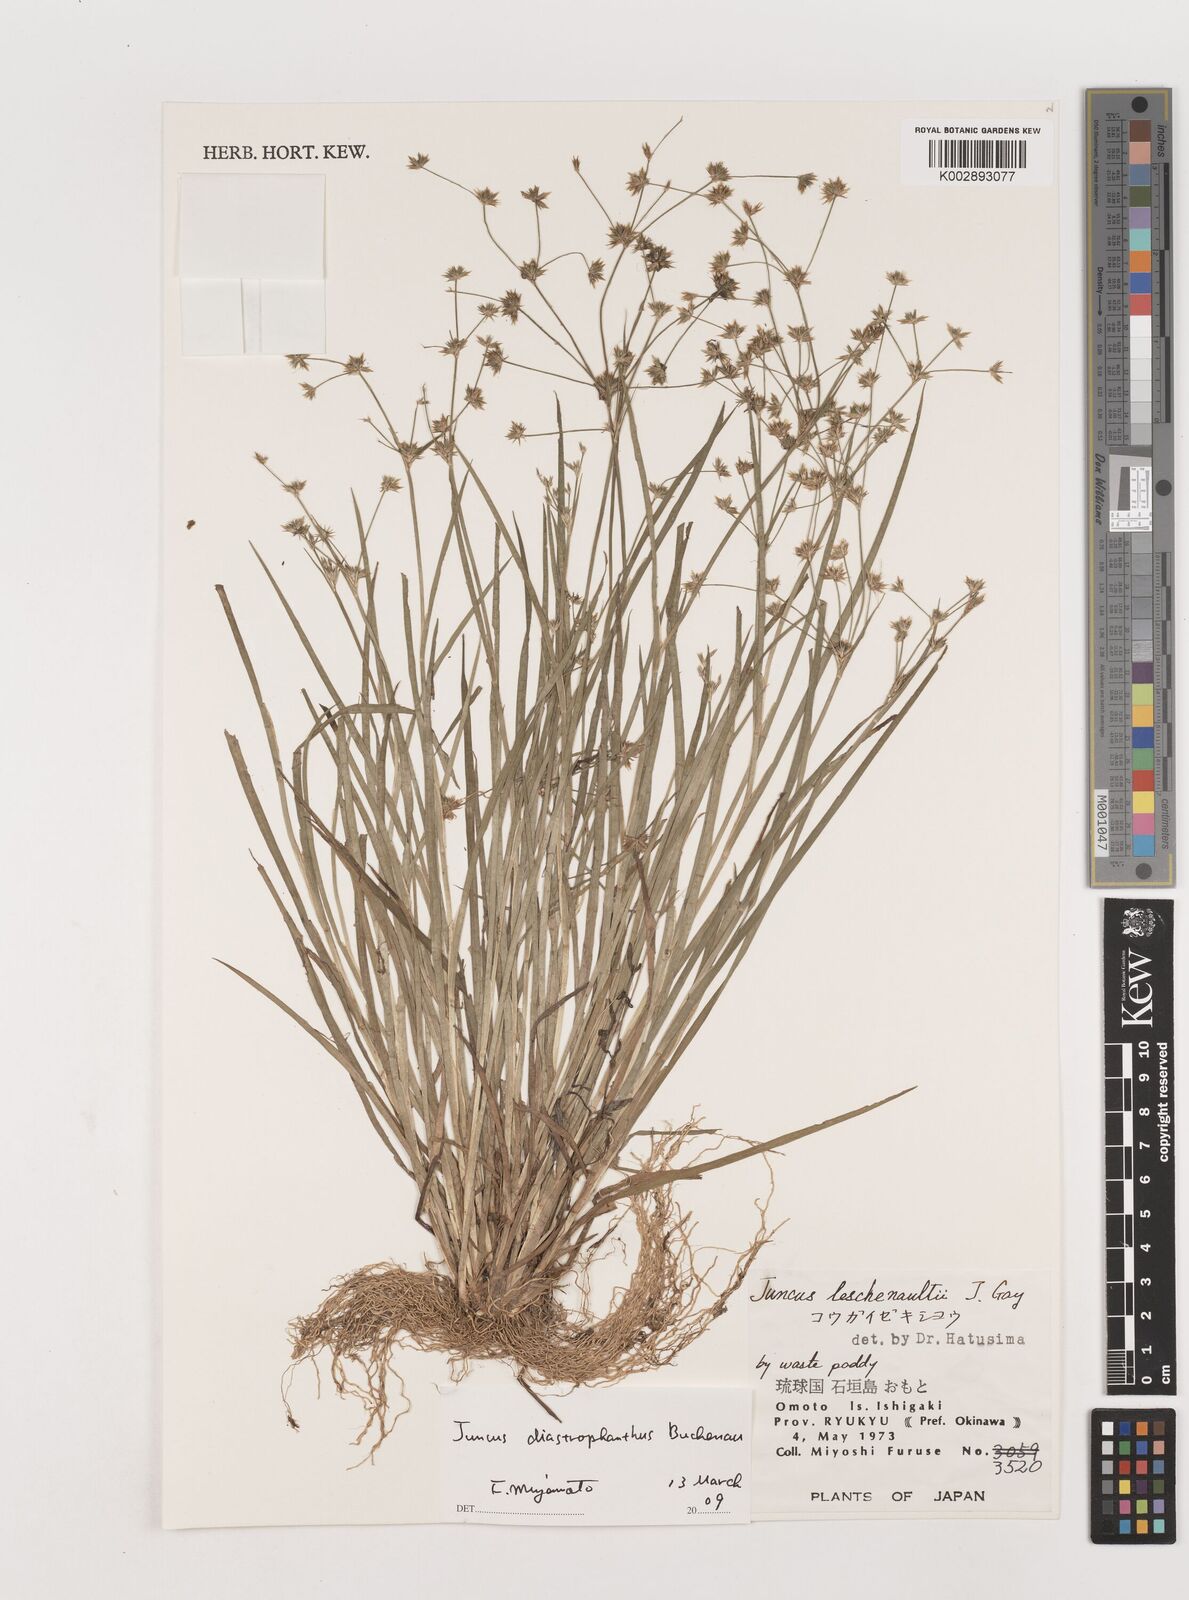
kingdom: Plantae
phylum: Tracheophyta
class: Liliopsida
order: Poales
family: Juncaceae
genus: Juncus
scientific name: Juncus prismatocarpus
